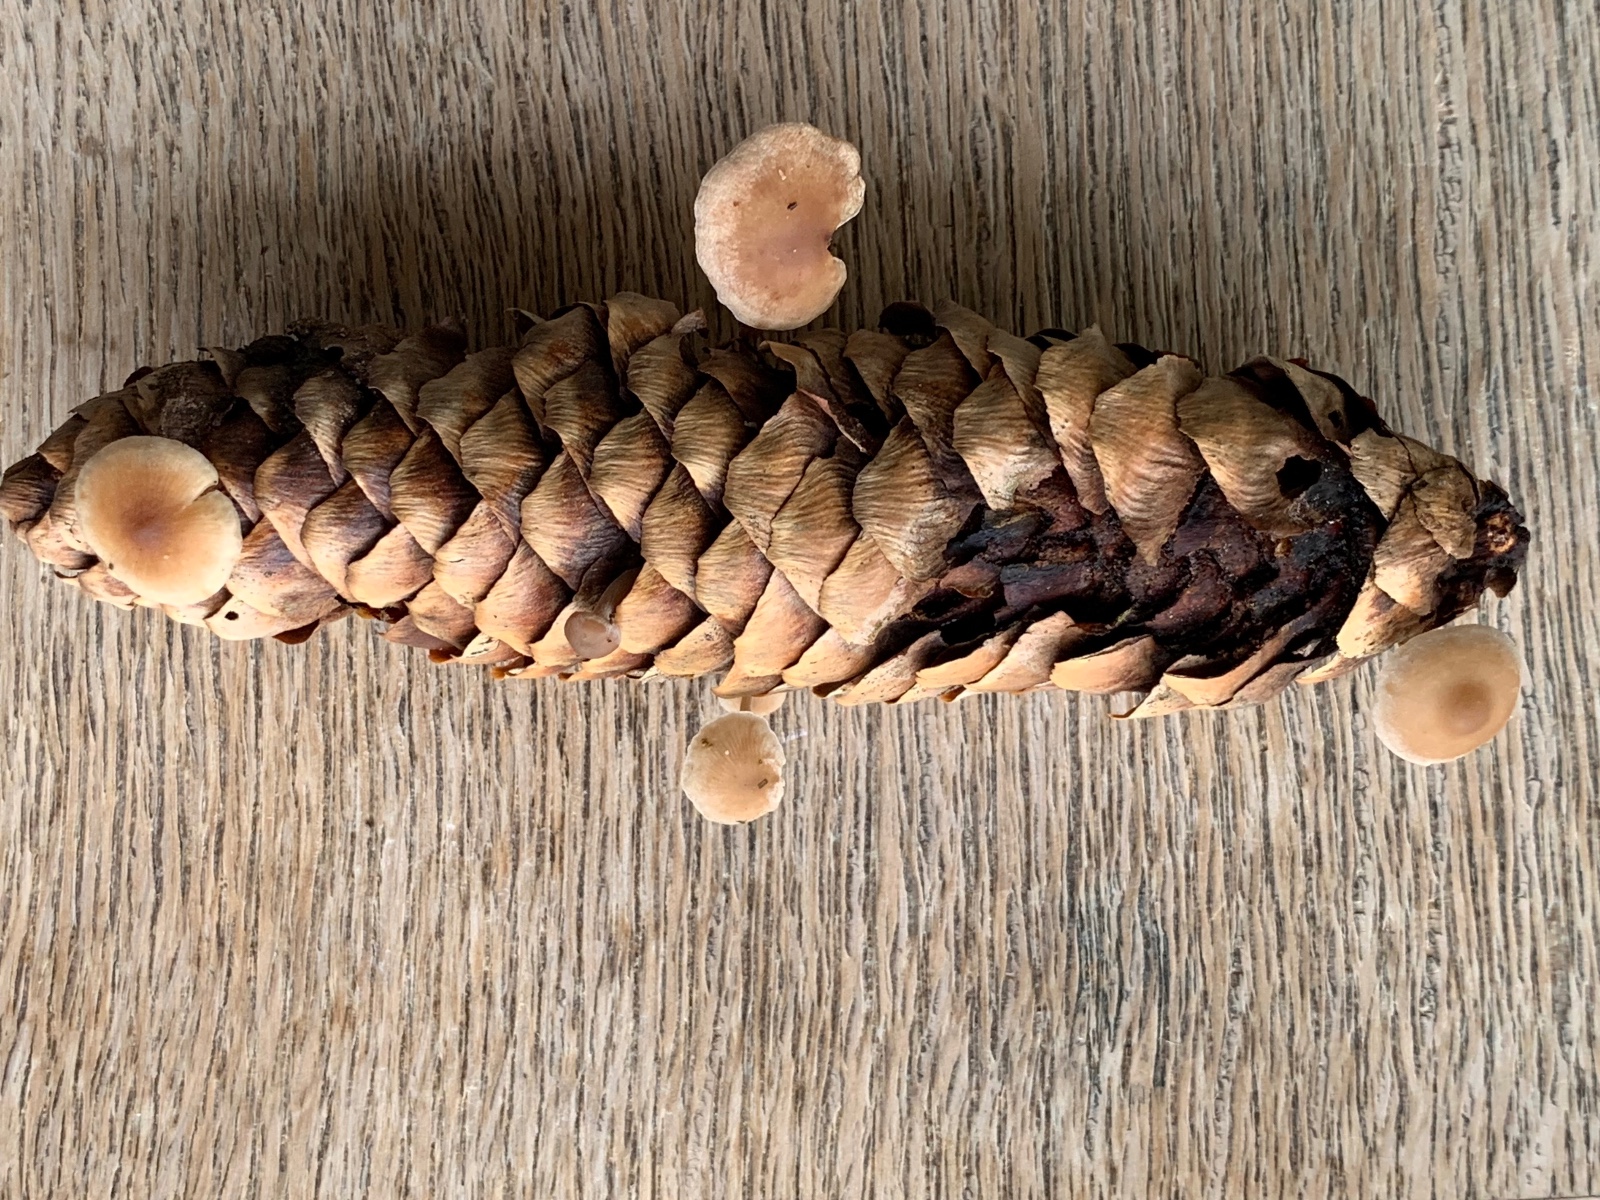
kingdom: Fungi
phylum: Basidiomycota
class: Agaricomycetes
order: Agaricales
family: Marasmiaceae
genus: Baeospora
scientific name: Baeospora
